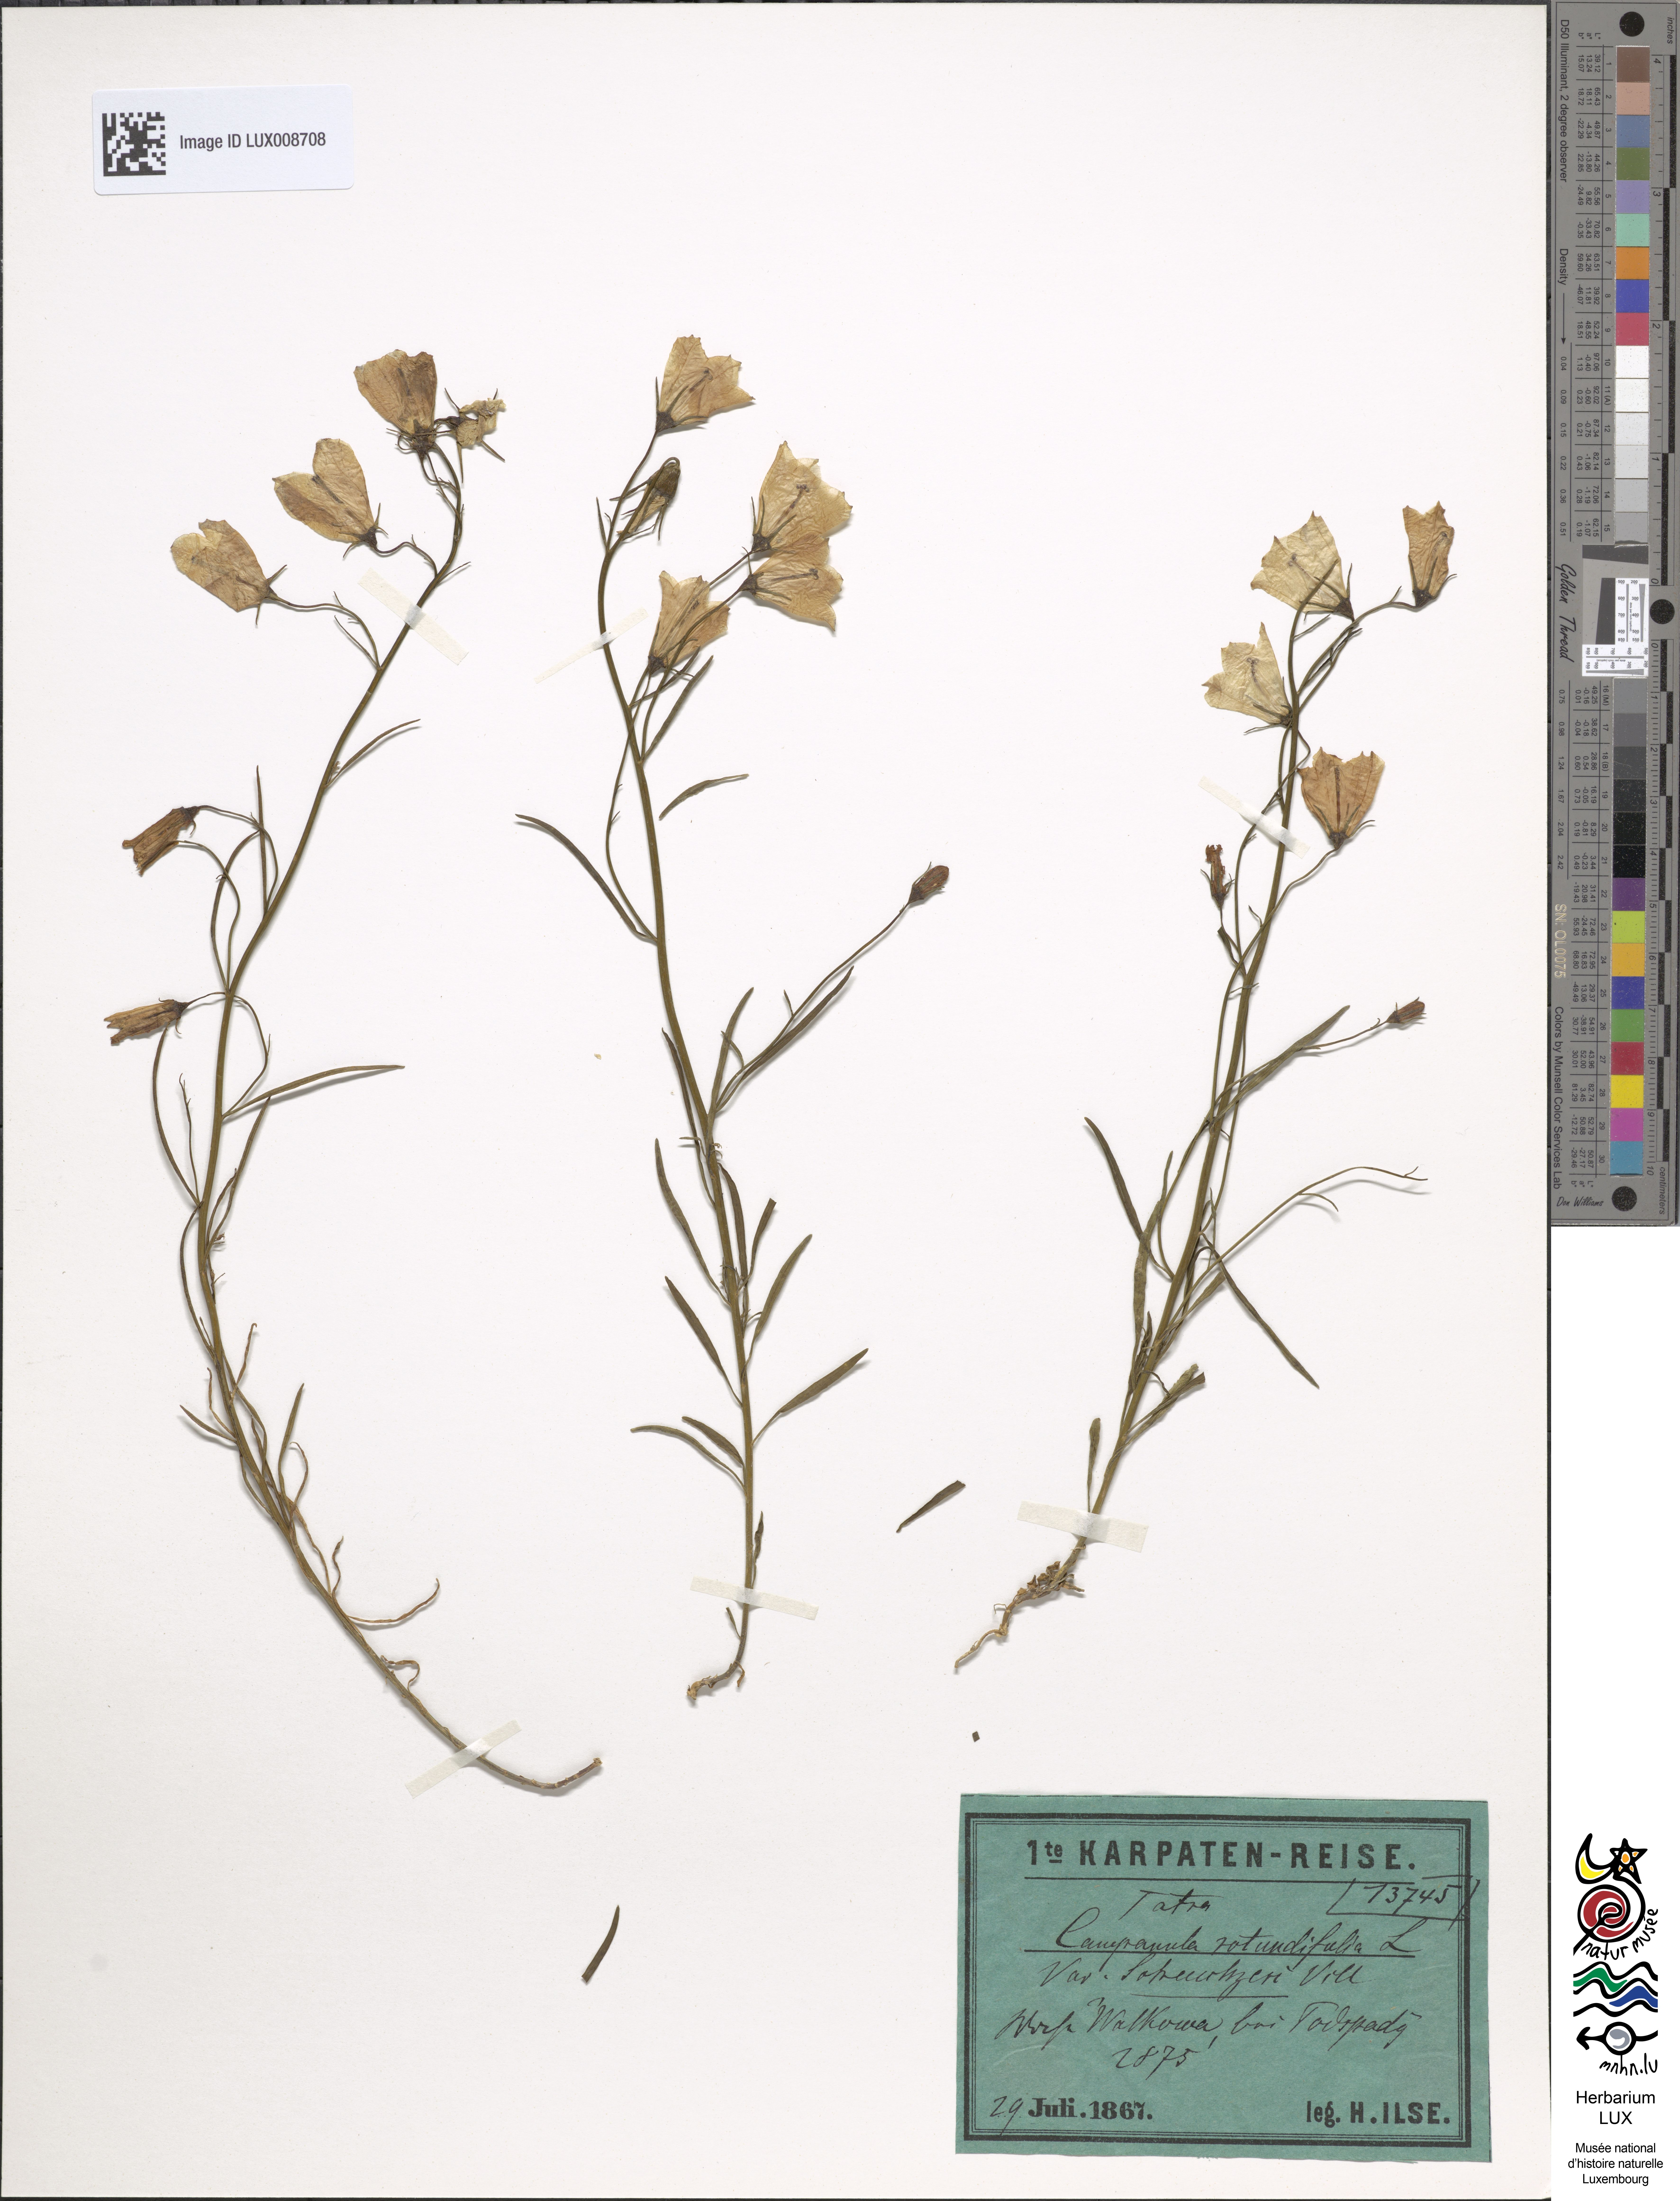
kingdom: Plantae
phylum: Tracheophyta
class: Magnoliopsida
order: Asterales
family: Campanulaceae
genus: Campanula
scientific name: Campanula scheuchzeri
